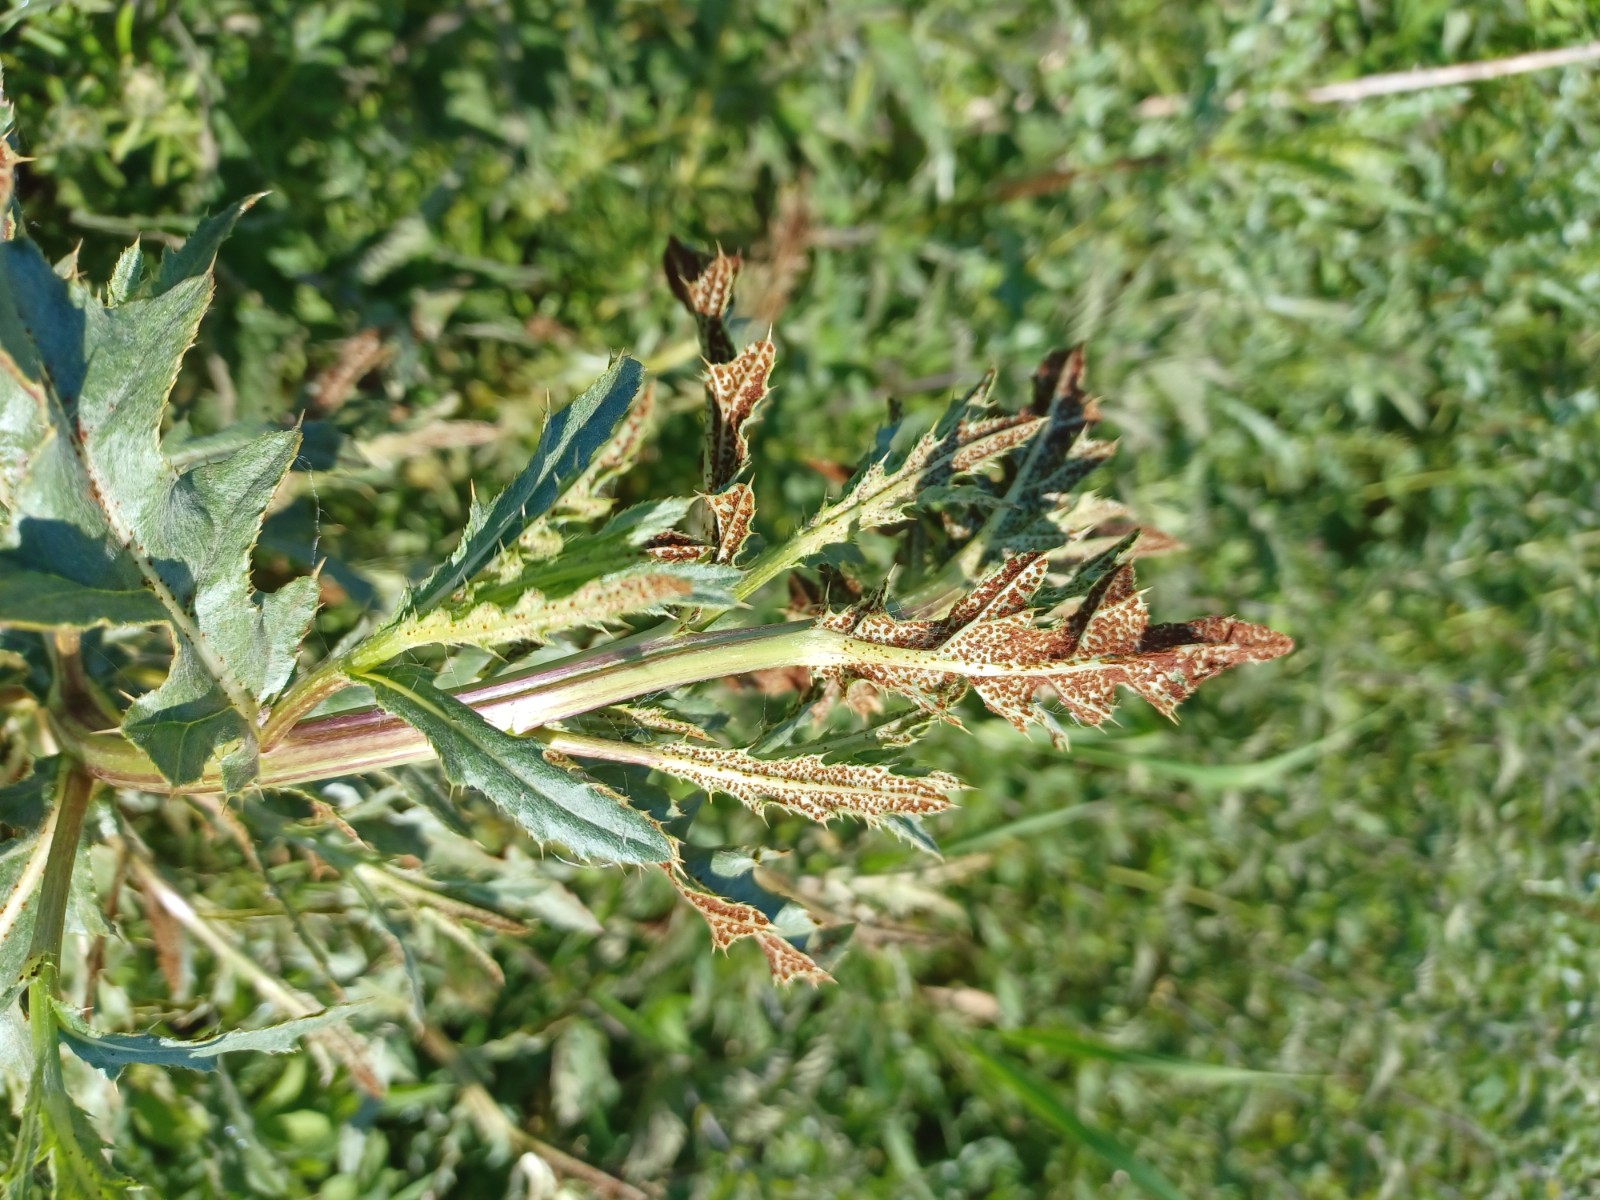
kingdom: Fungi
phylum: Basidiomycota
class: Pucciniomycetes
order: Pucciniales
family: Pucciniaceae
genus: Puccinia
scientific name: Puccinia suaveolens
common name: tidsel-tvecellerust
